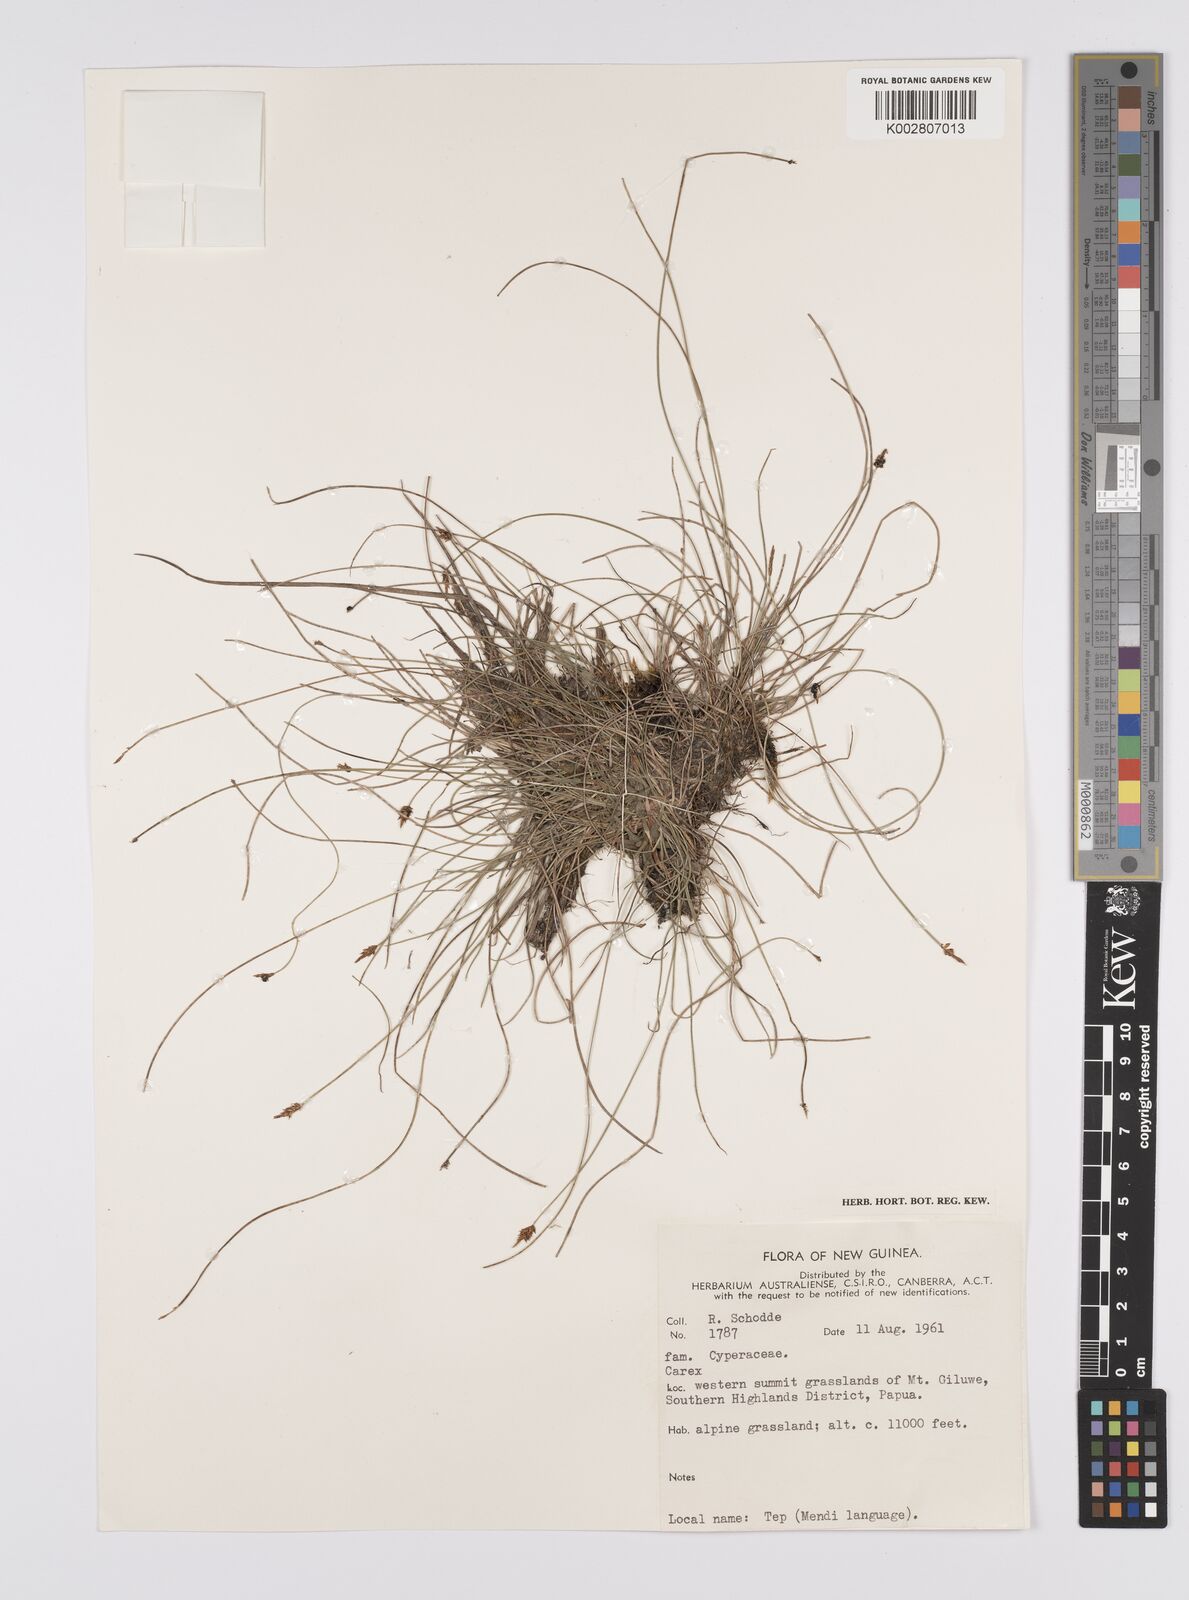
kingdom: Plantae
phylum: Tracheophyta
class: Liliopsida
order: Poales
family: Cyperaceae
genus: Carex
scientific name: Carex capillacea
